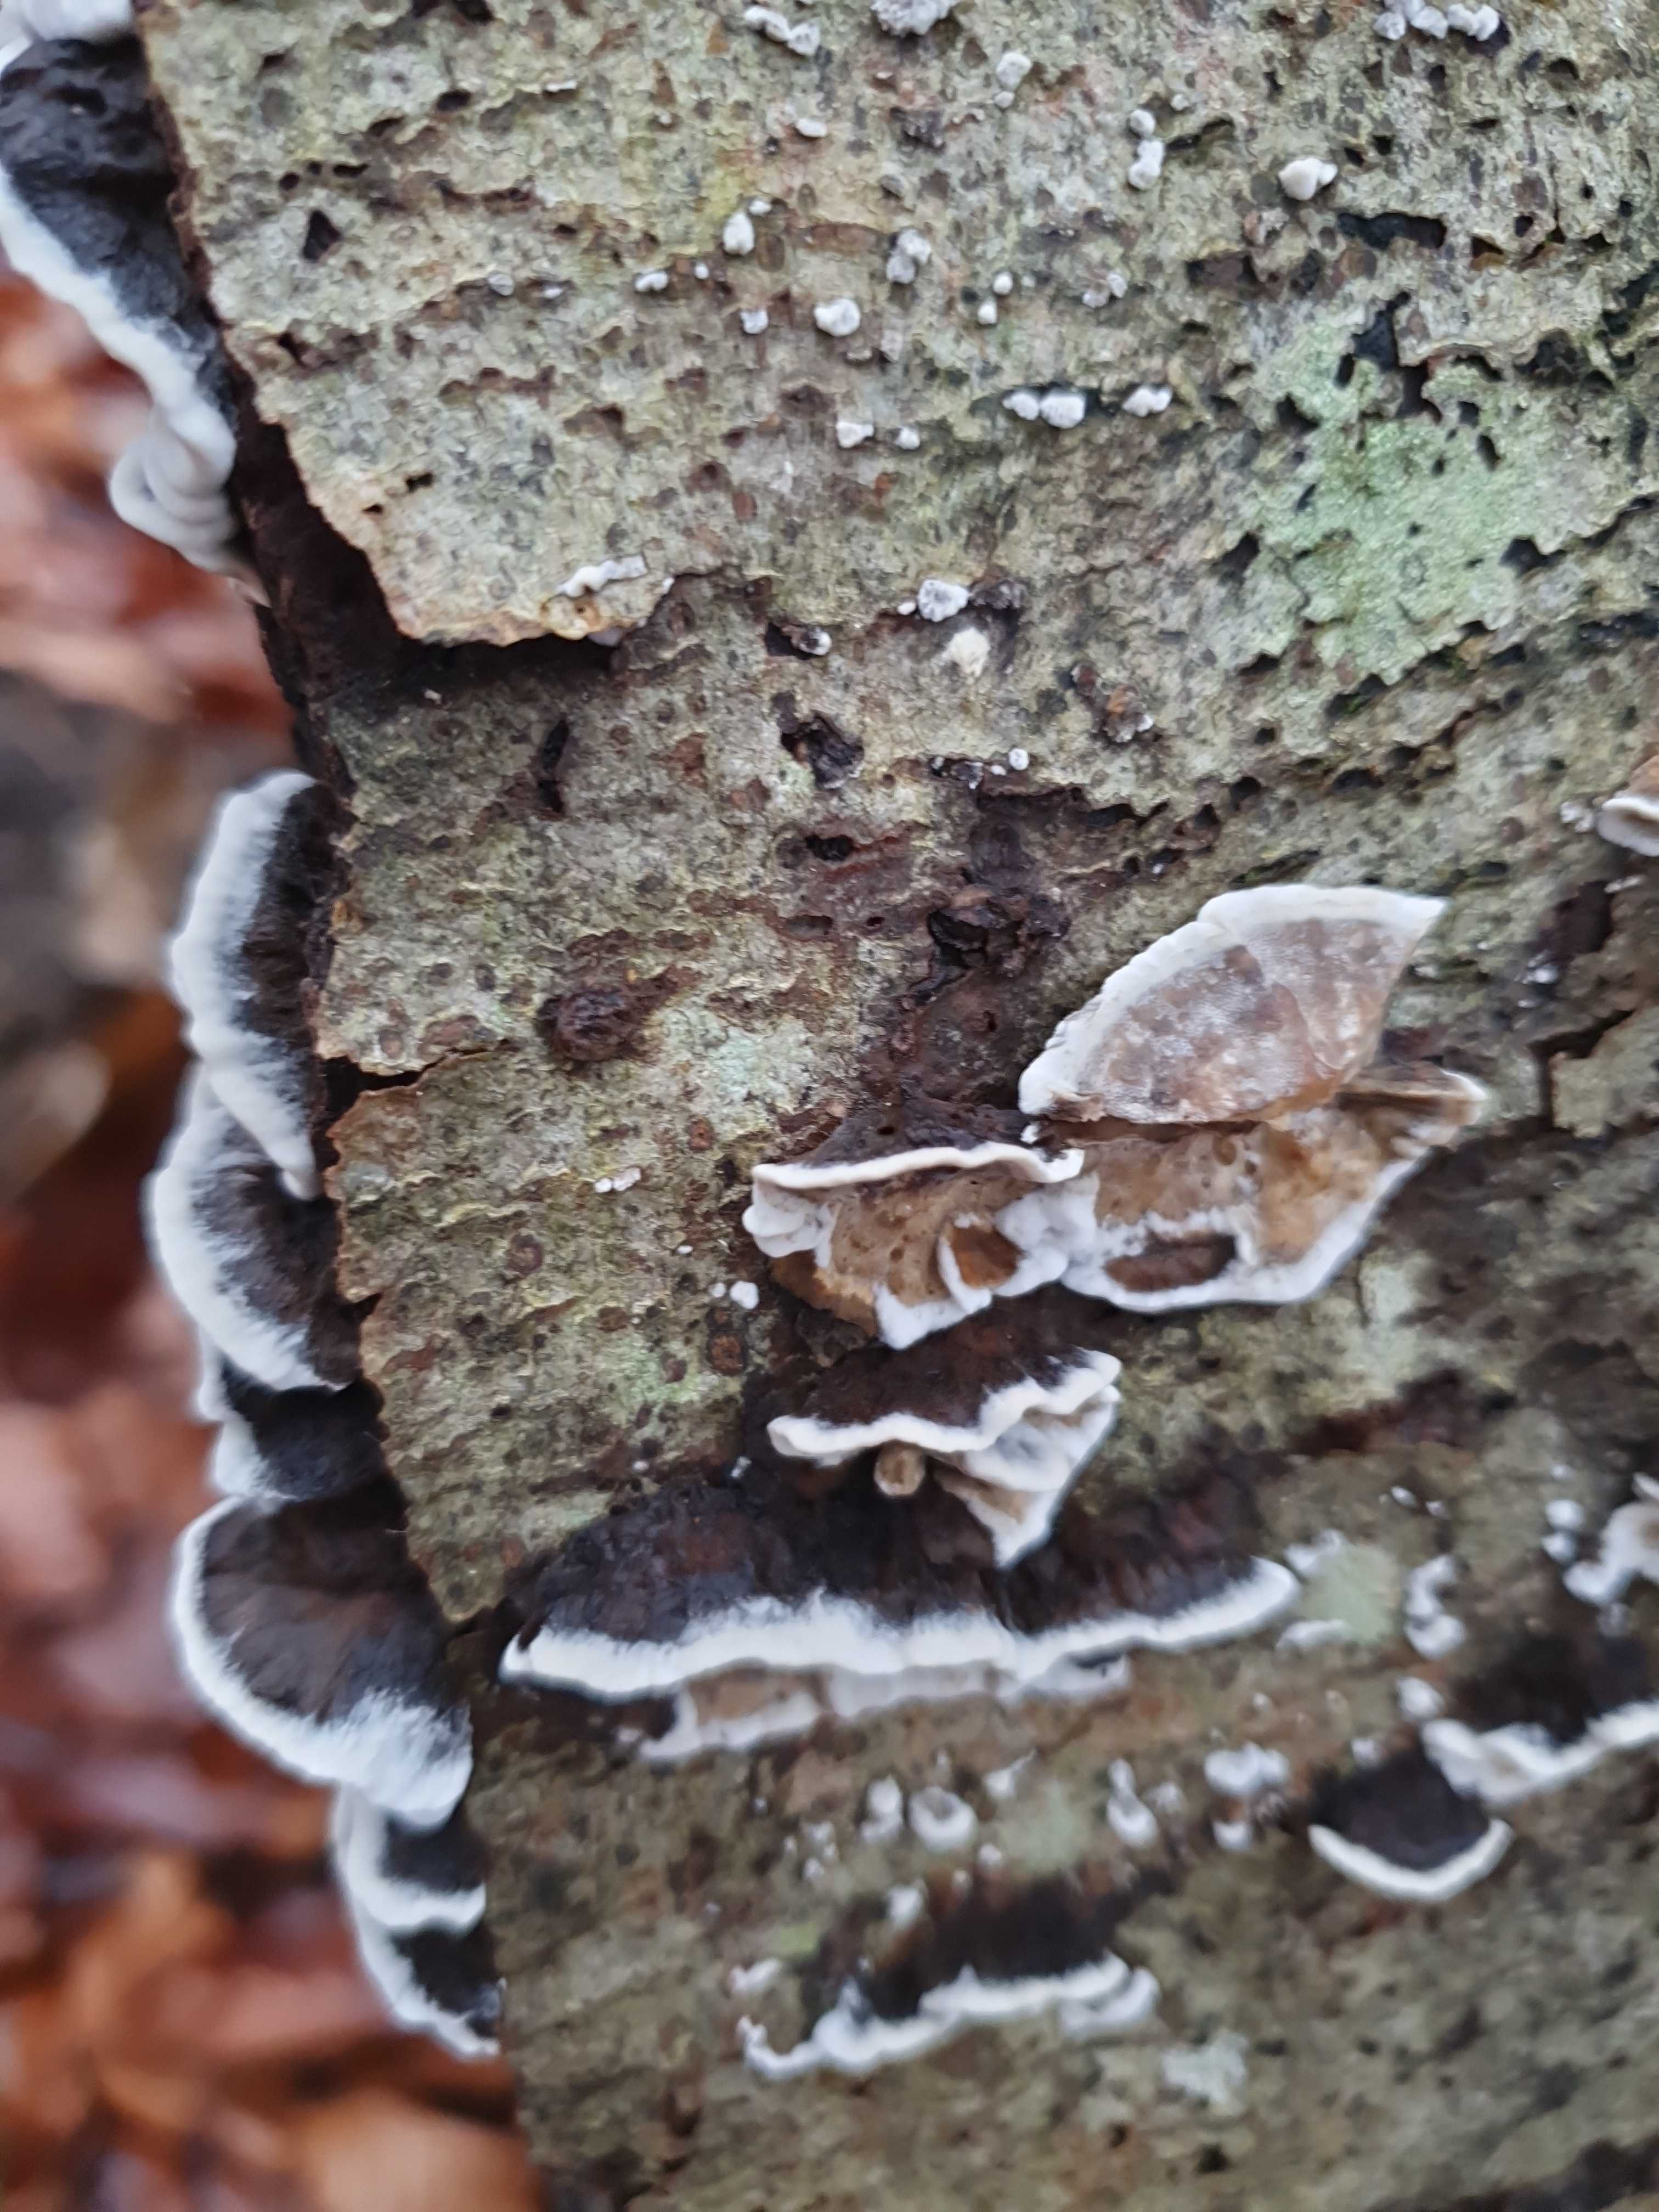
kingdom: Fungi
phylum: Basidiomycota
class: Agaricomycetes
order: Polyporales
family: Phanerochaetaceae
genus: Bjerkandera
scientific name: Bjerkandera adusta
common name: sveden sodporesvamp
